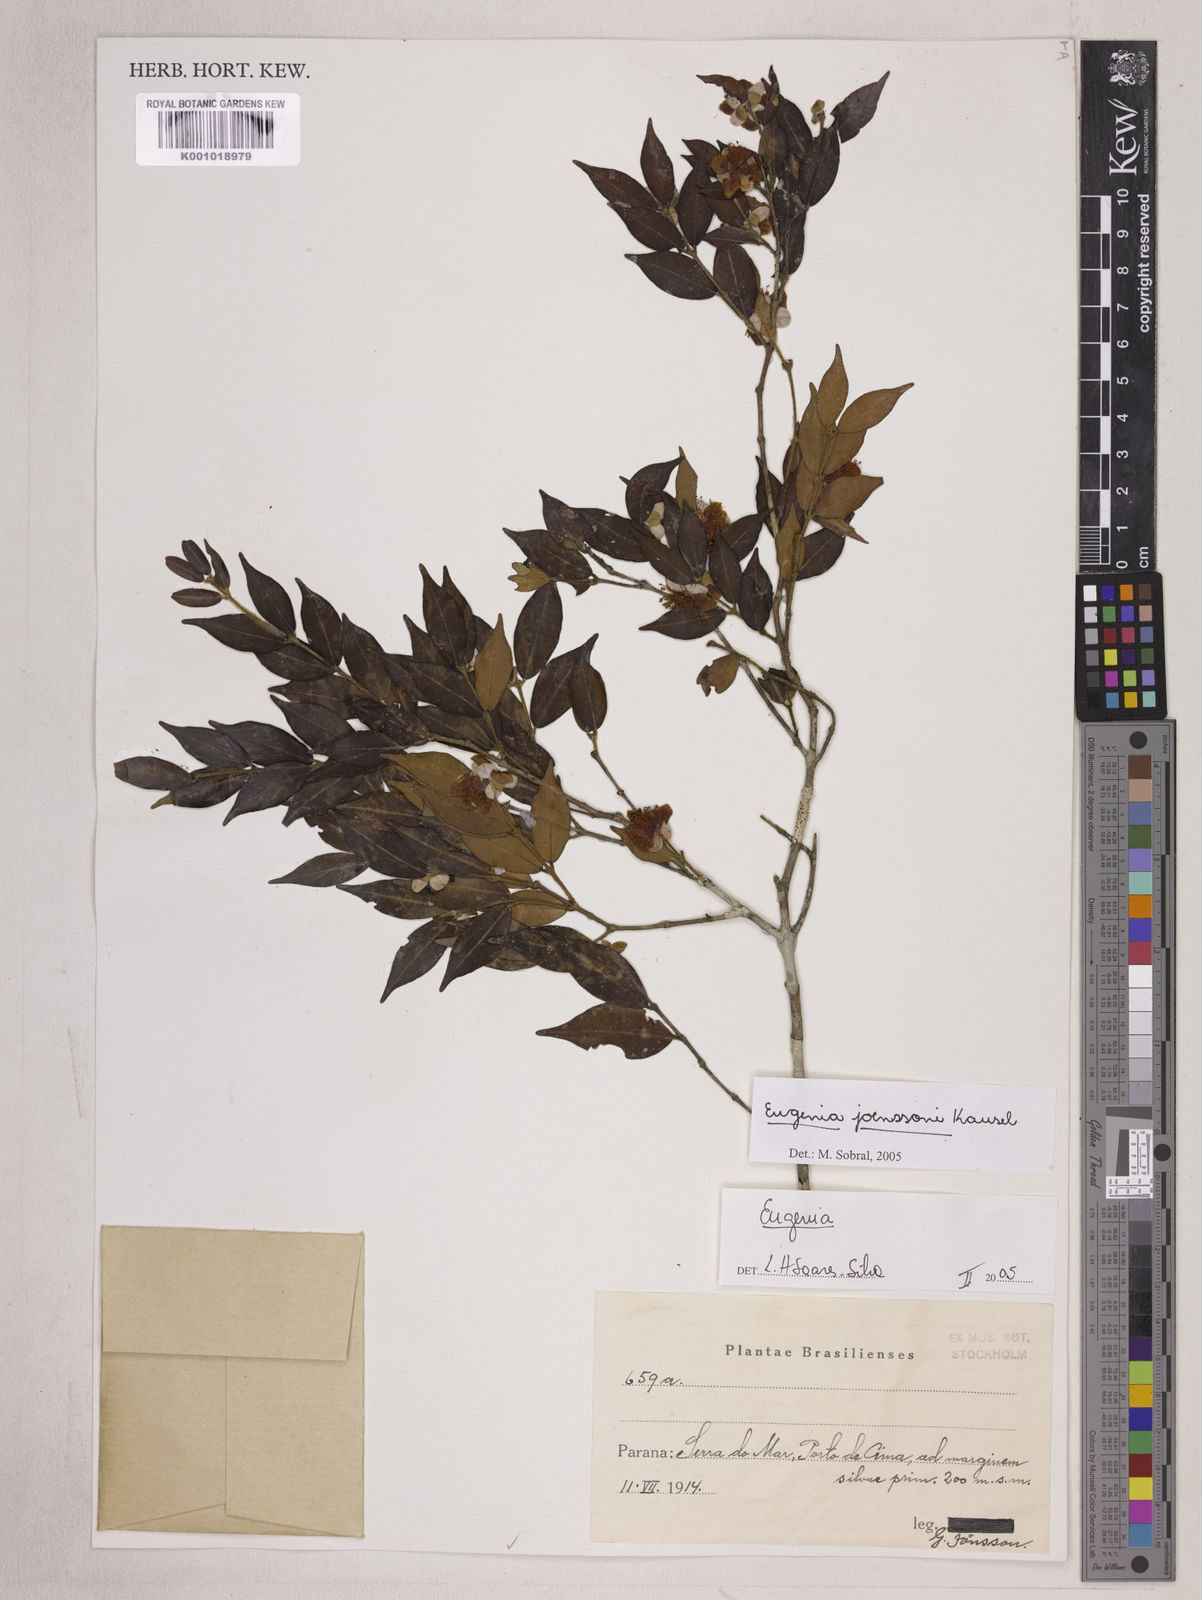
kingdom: Plantae
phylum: Tracheophyta
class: Magnoliopsida
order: Myrtales
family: Myrtaceae
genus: Eugenia
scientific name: Eugenia joenssonii
